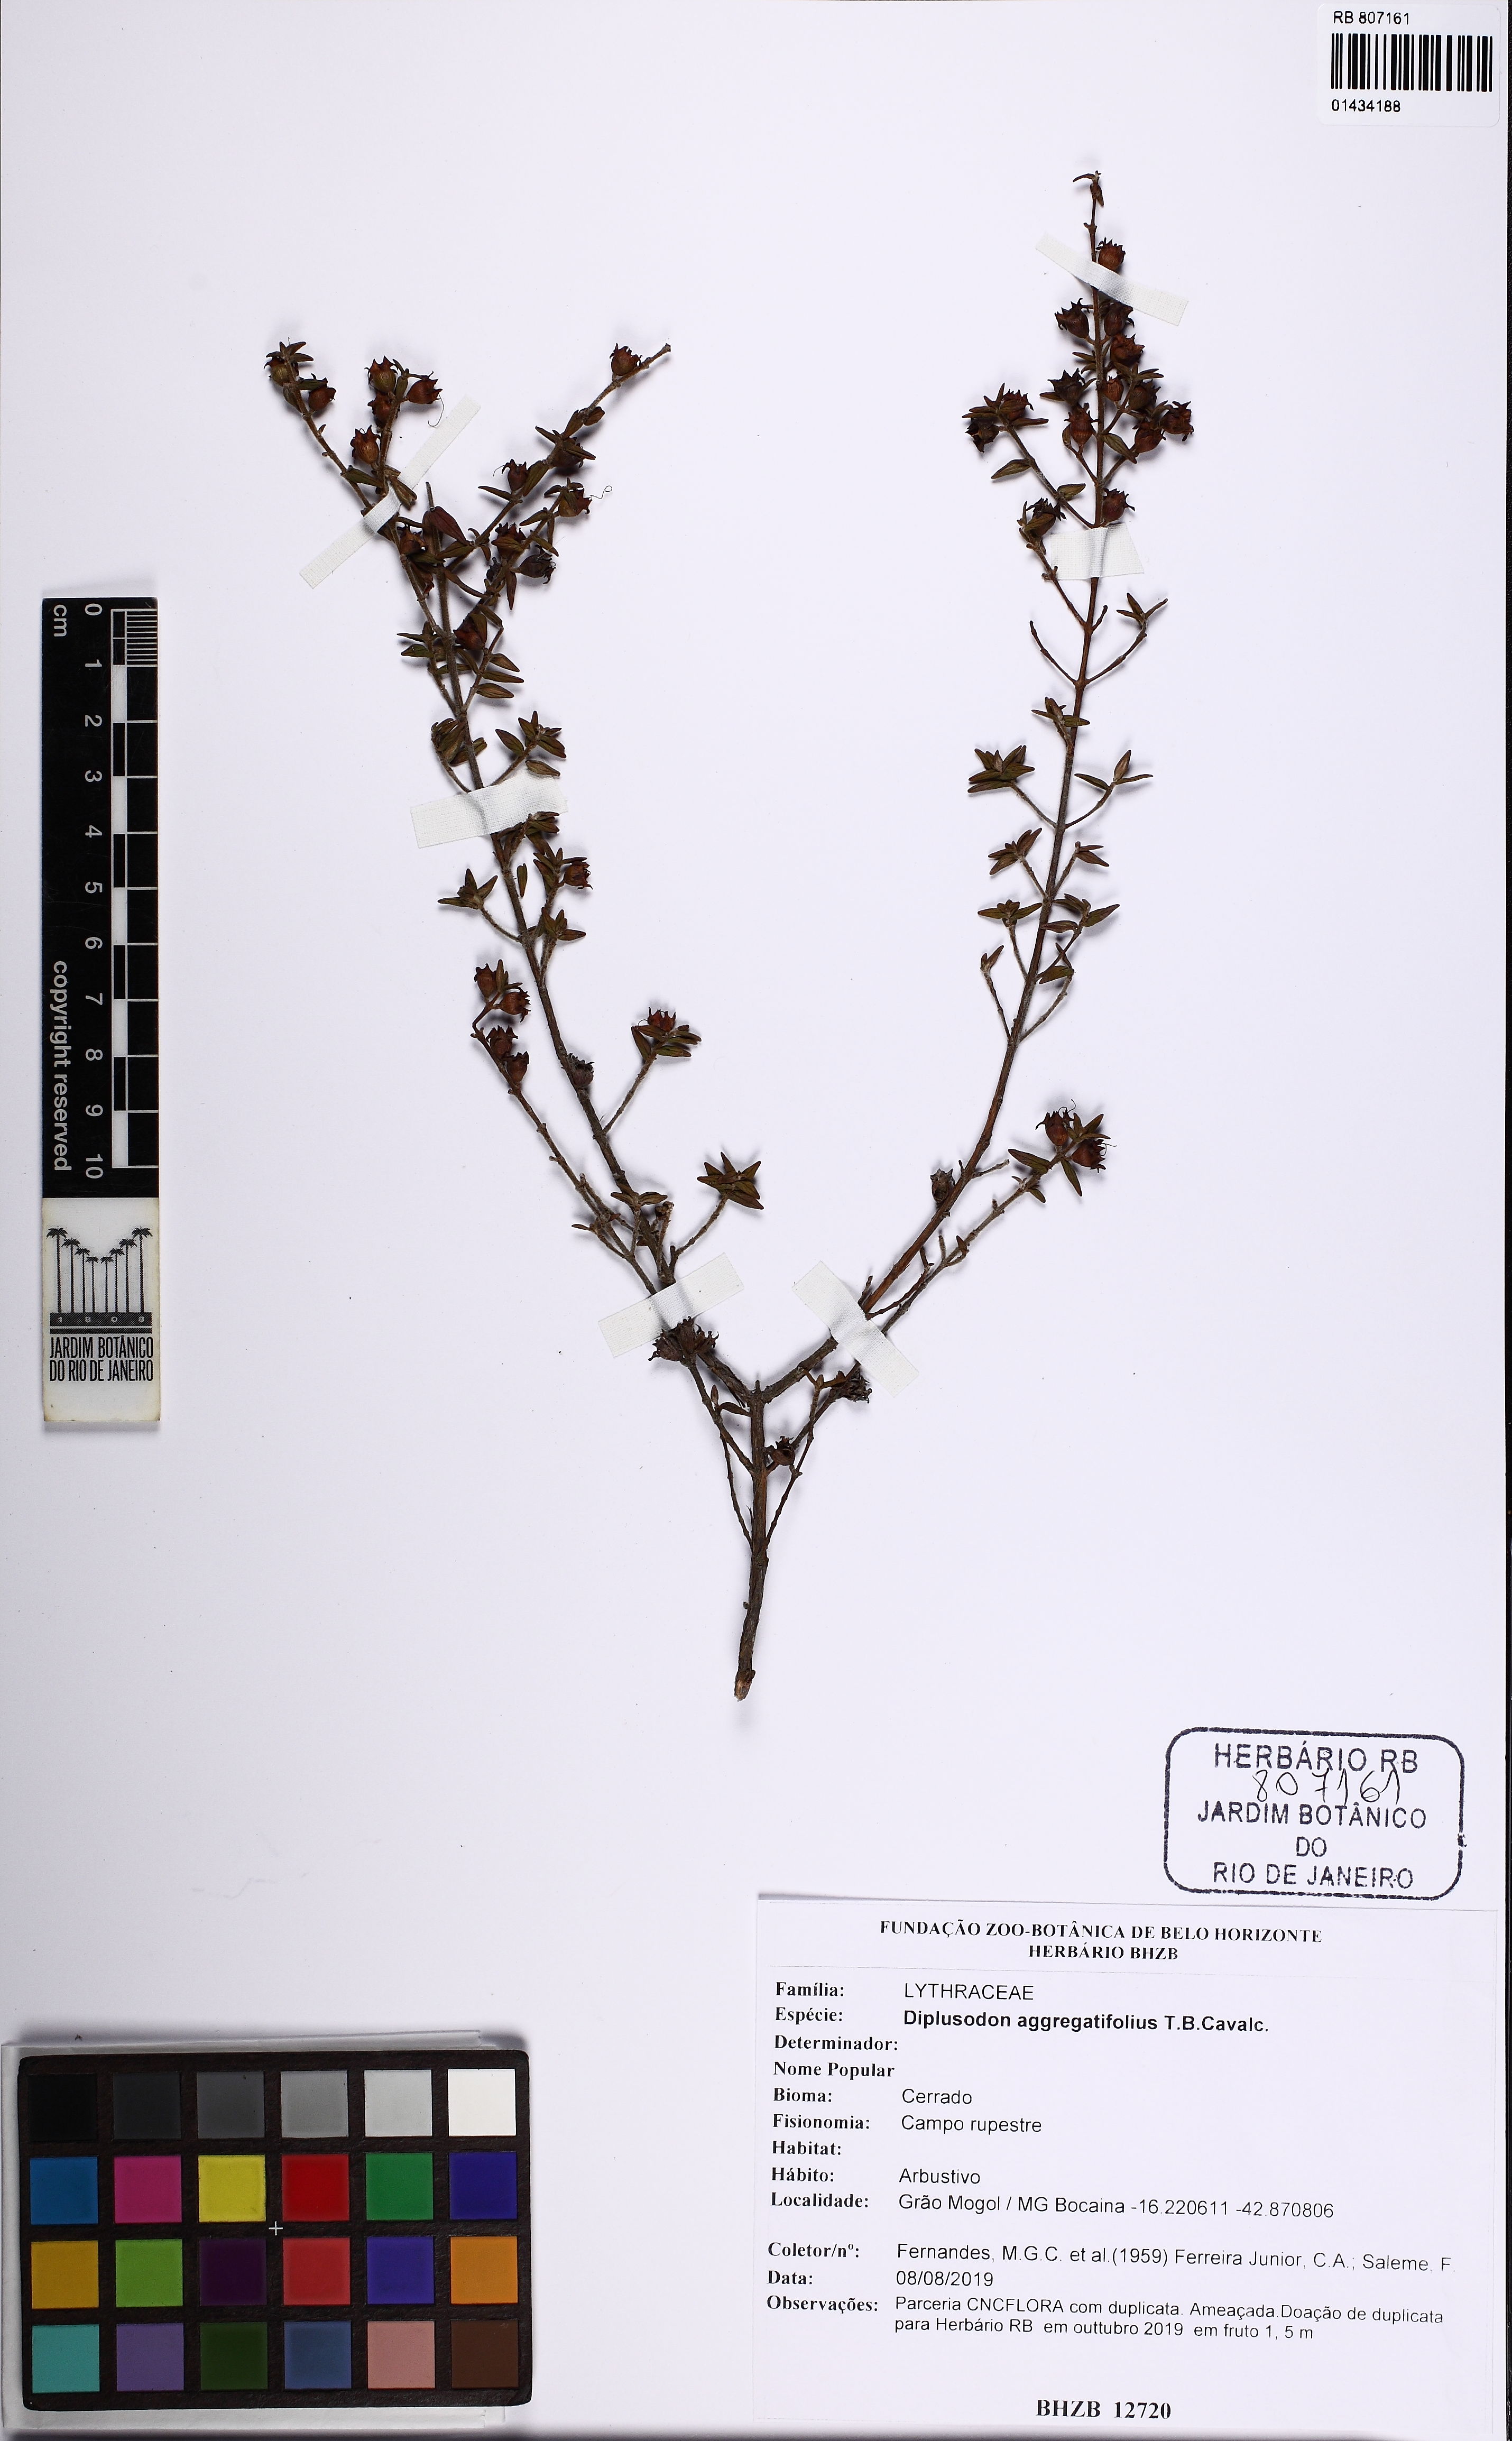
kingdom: Plantae
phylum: Tracheophyta
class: Magnoliopsida
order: Myrtales
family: Lythraceae
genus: Diplusodon
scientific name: Diplusodon aggregatifolius
